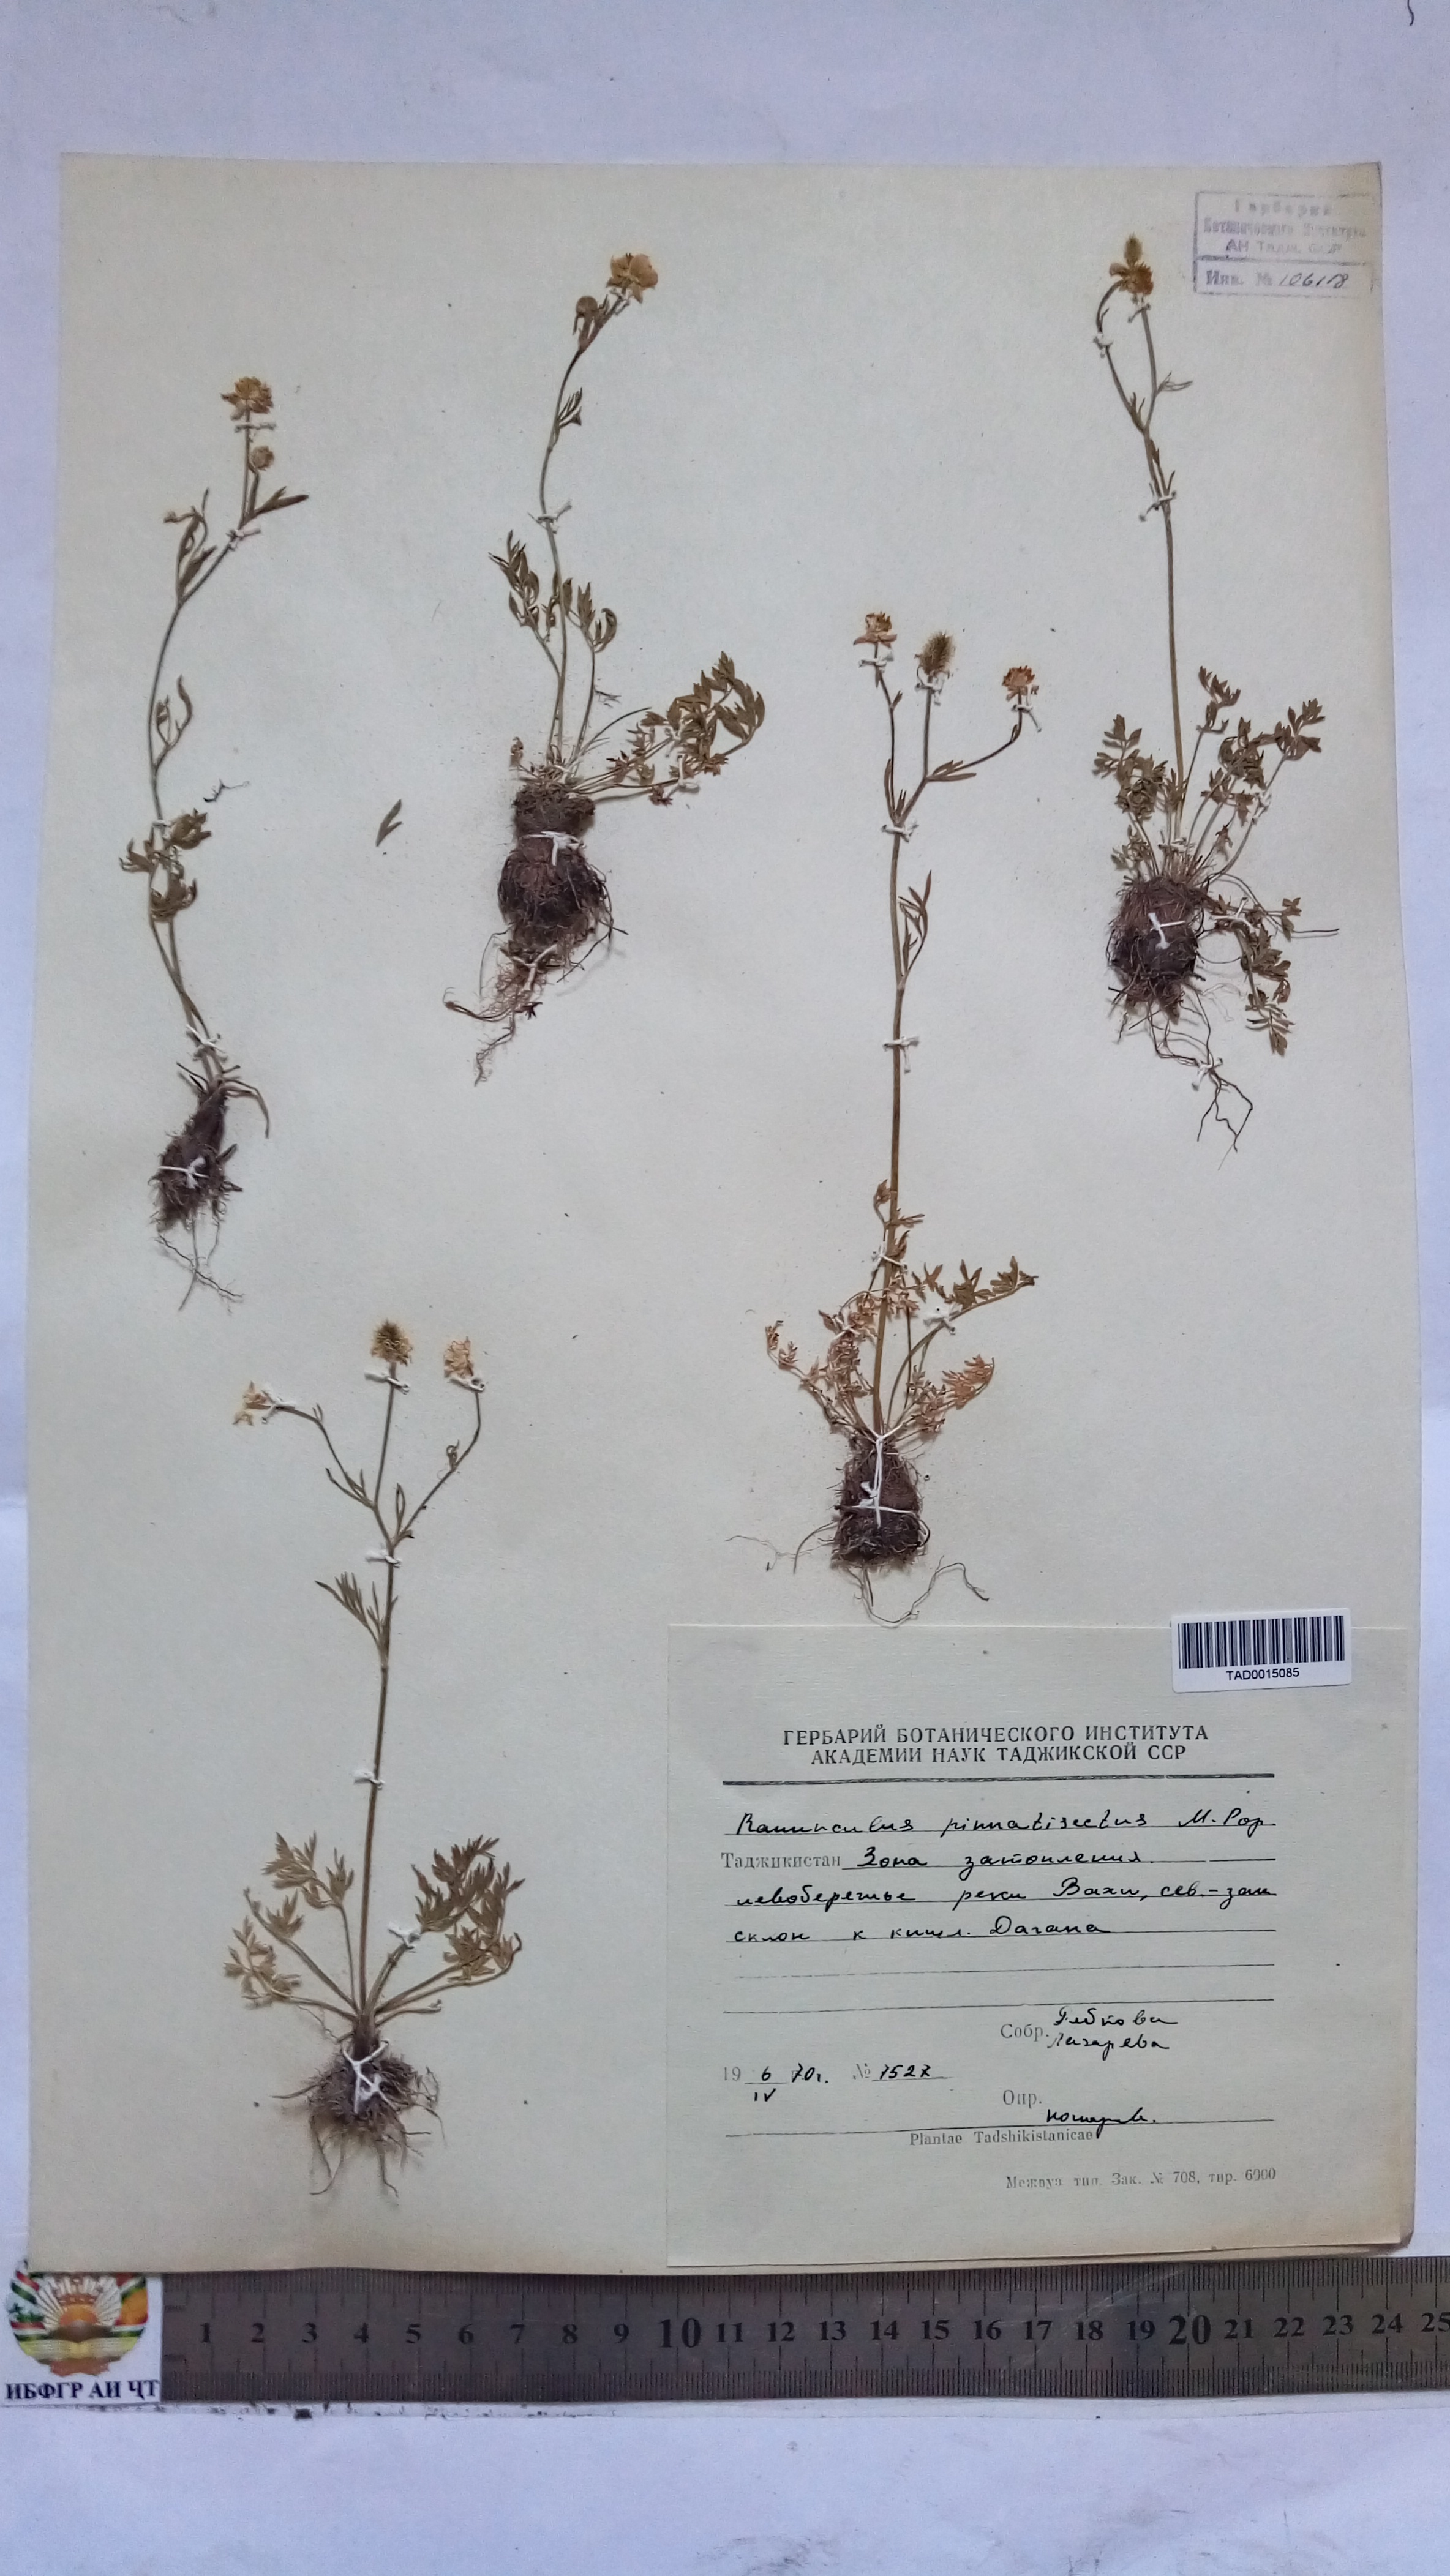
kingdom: Plantae
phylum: Tracheophyta
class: Magnoliopsida
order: Ranunculales
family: Ranunculaceae
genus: Ranunculus
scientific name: Ranunculus pinnatisectus
